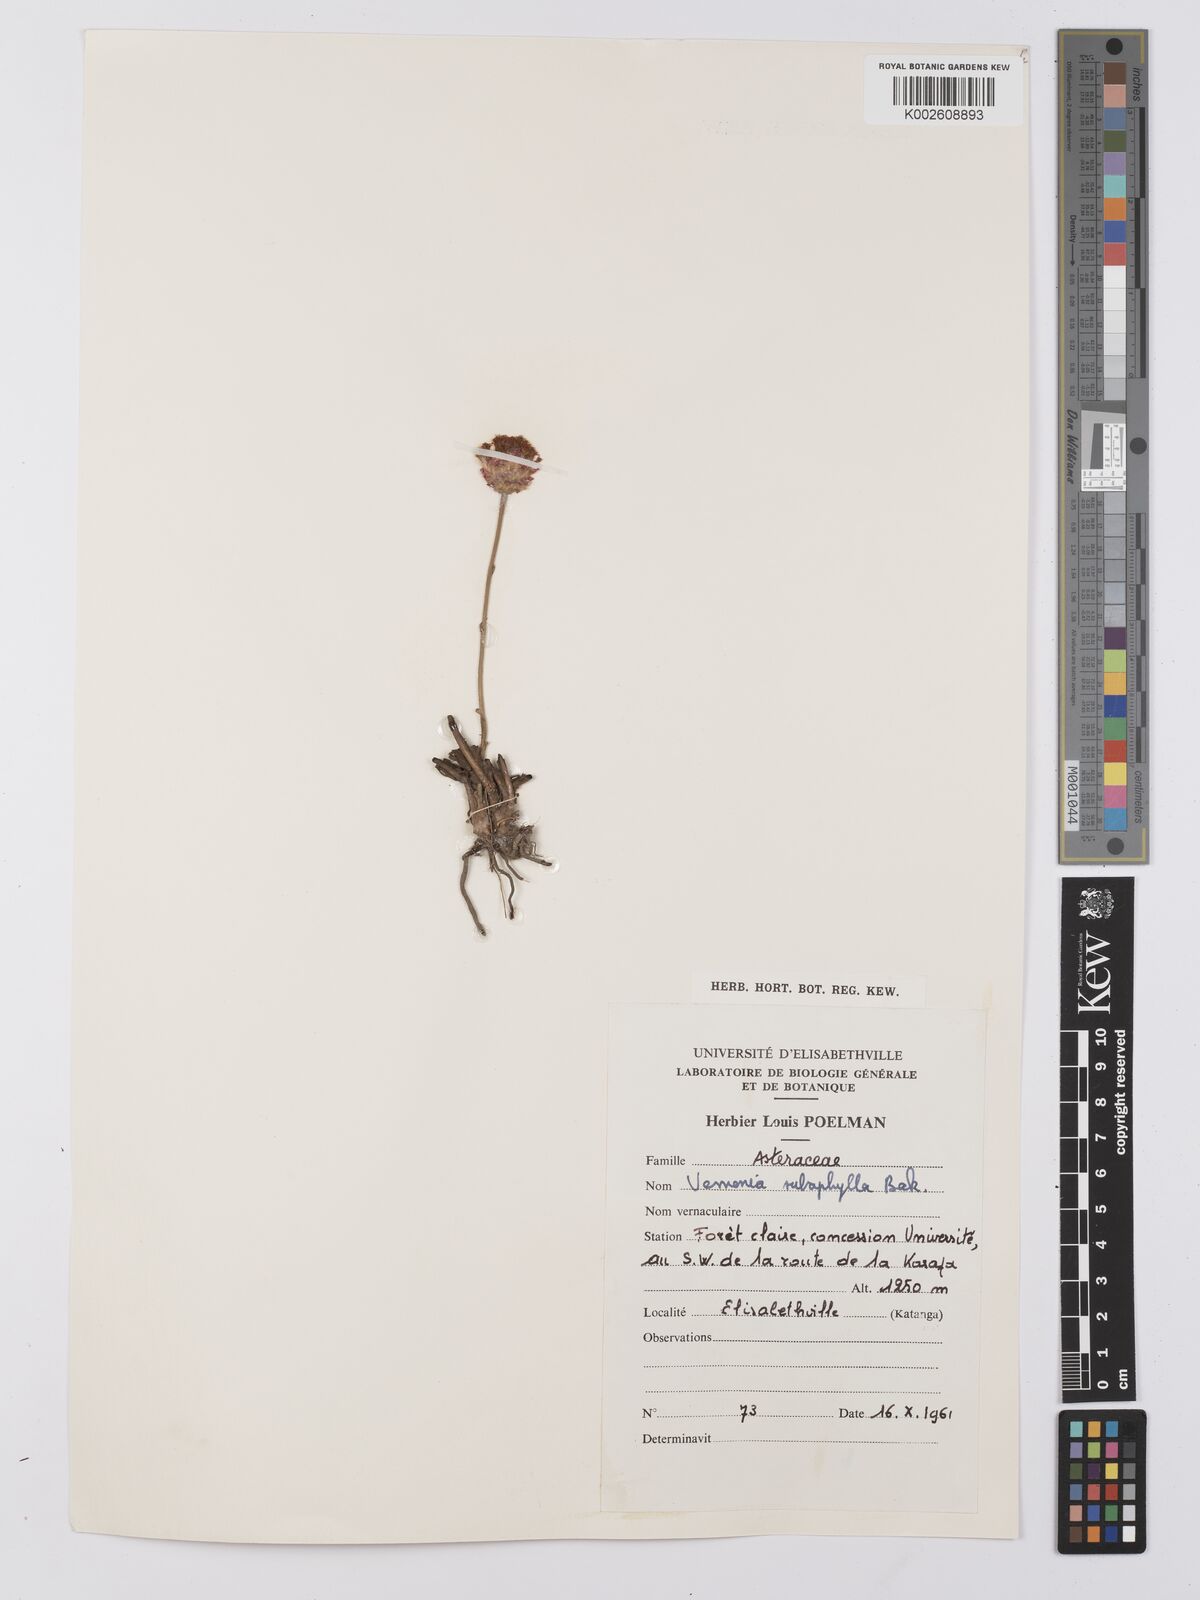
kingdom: Plantae
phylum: Tracheophyta
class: Magnoliopsida
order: Asterales
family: Asteraceae
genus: Vernonella
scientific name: Vernonella subaphylla
